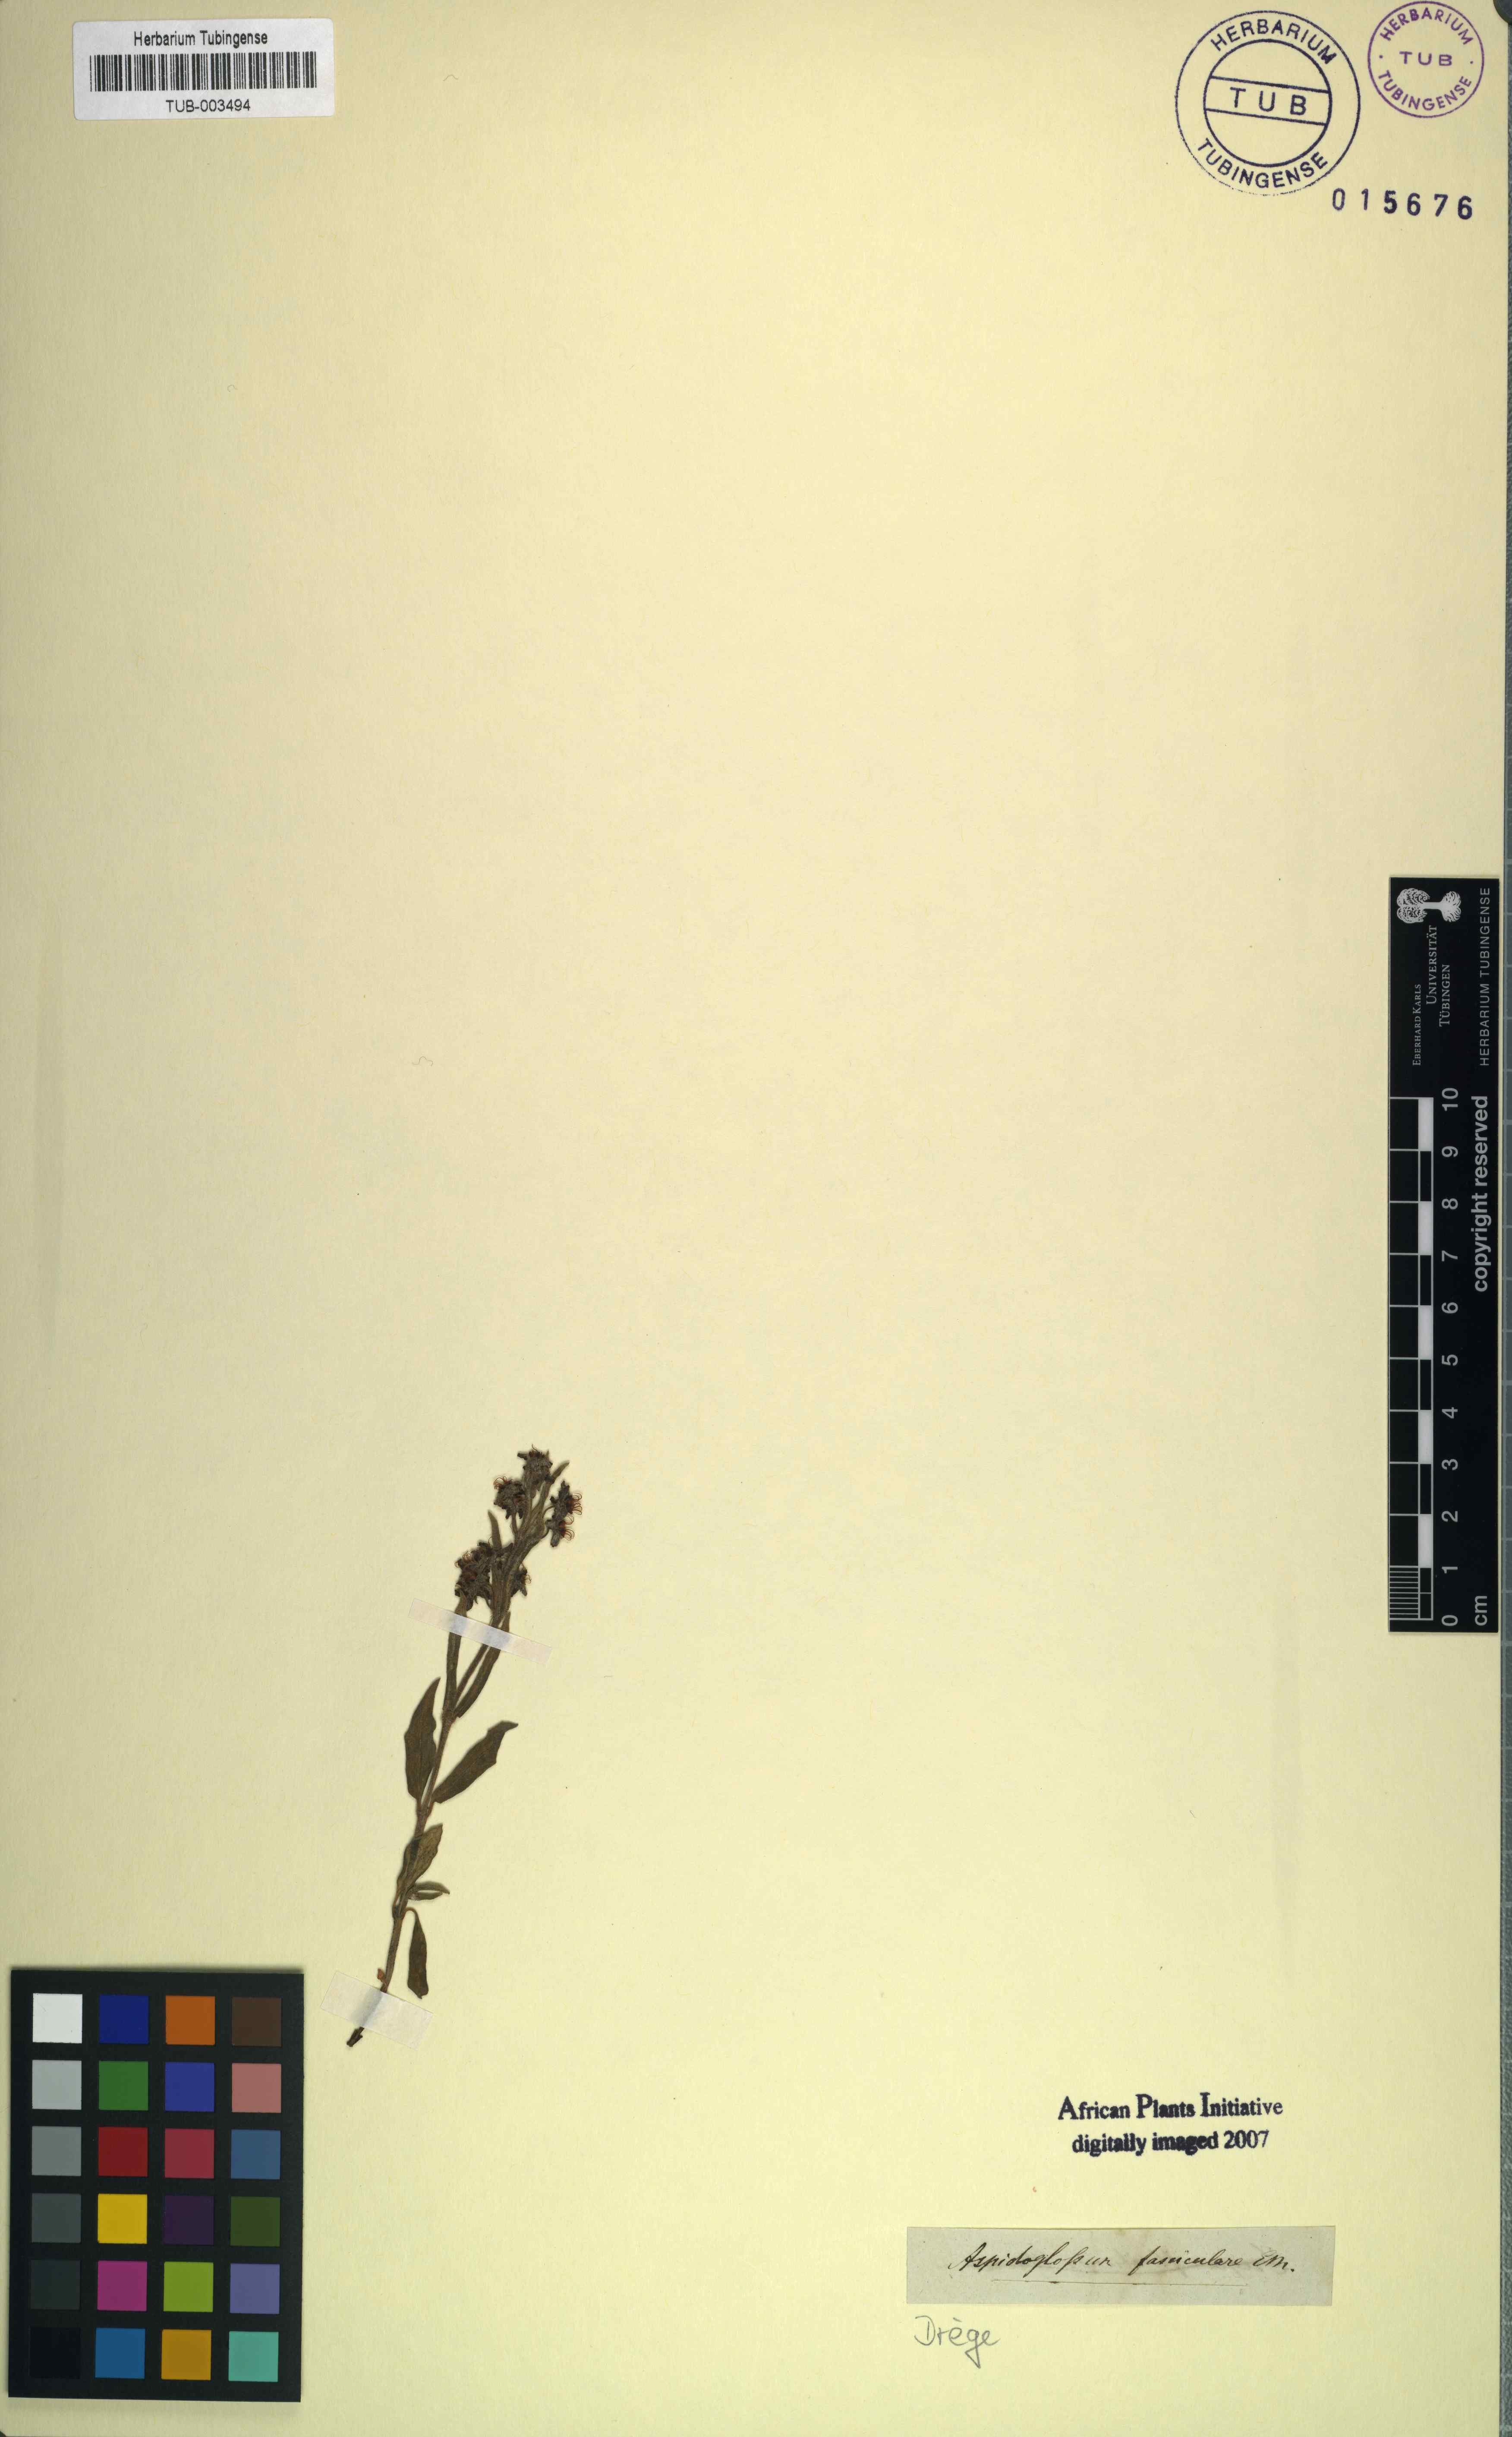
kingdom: Plantae
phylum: Tracheophyta
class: Magnoliopsida
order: Gentianales
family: Apocynaceae
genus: Aspidoglossum
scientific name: Aspidoglossum fasciculare
